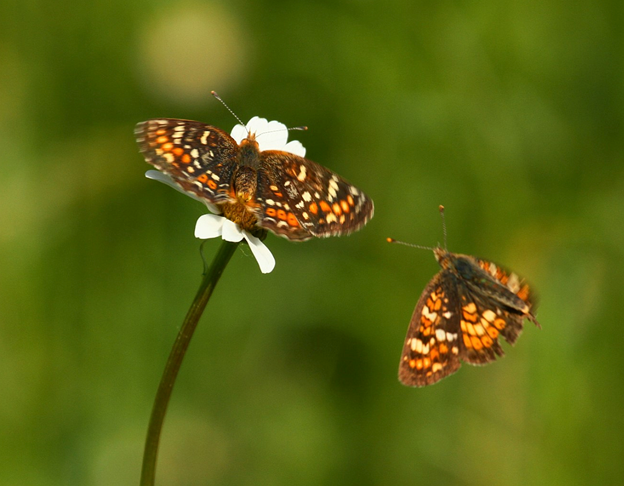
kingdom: Animalia
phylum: Arthropoda
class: Insecta
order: Lepidoptera
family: Nymphalidae
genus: Phyciodes
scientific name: Phyciodes tharos
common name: Field Crescent
